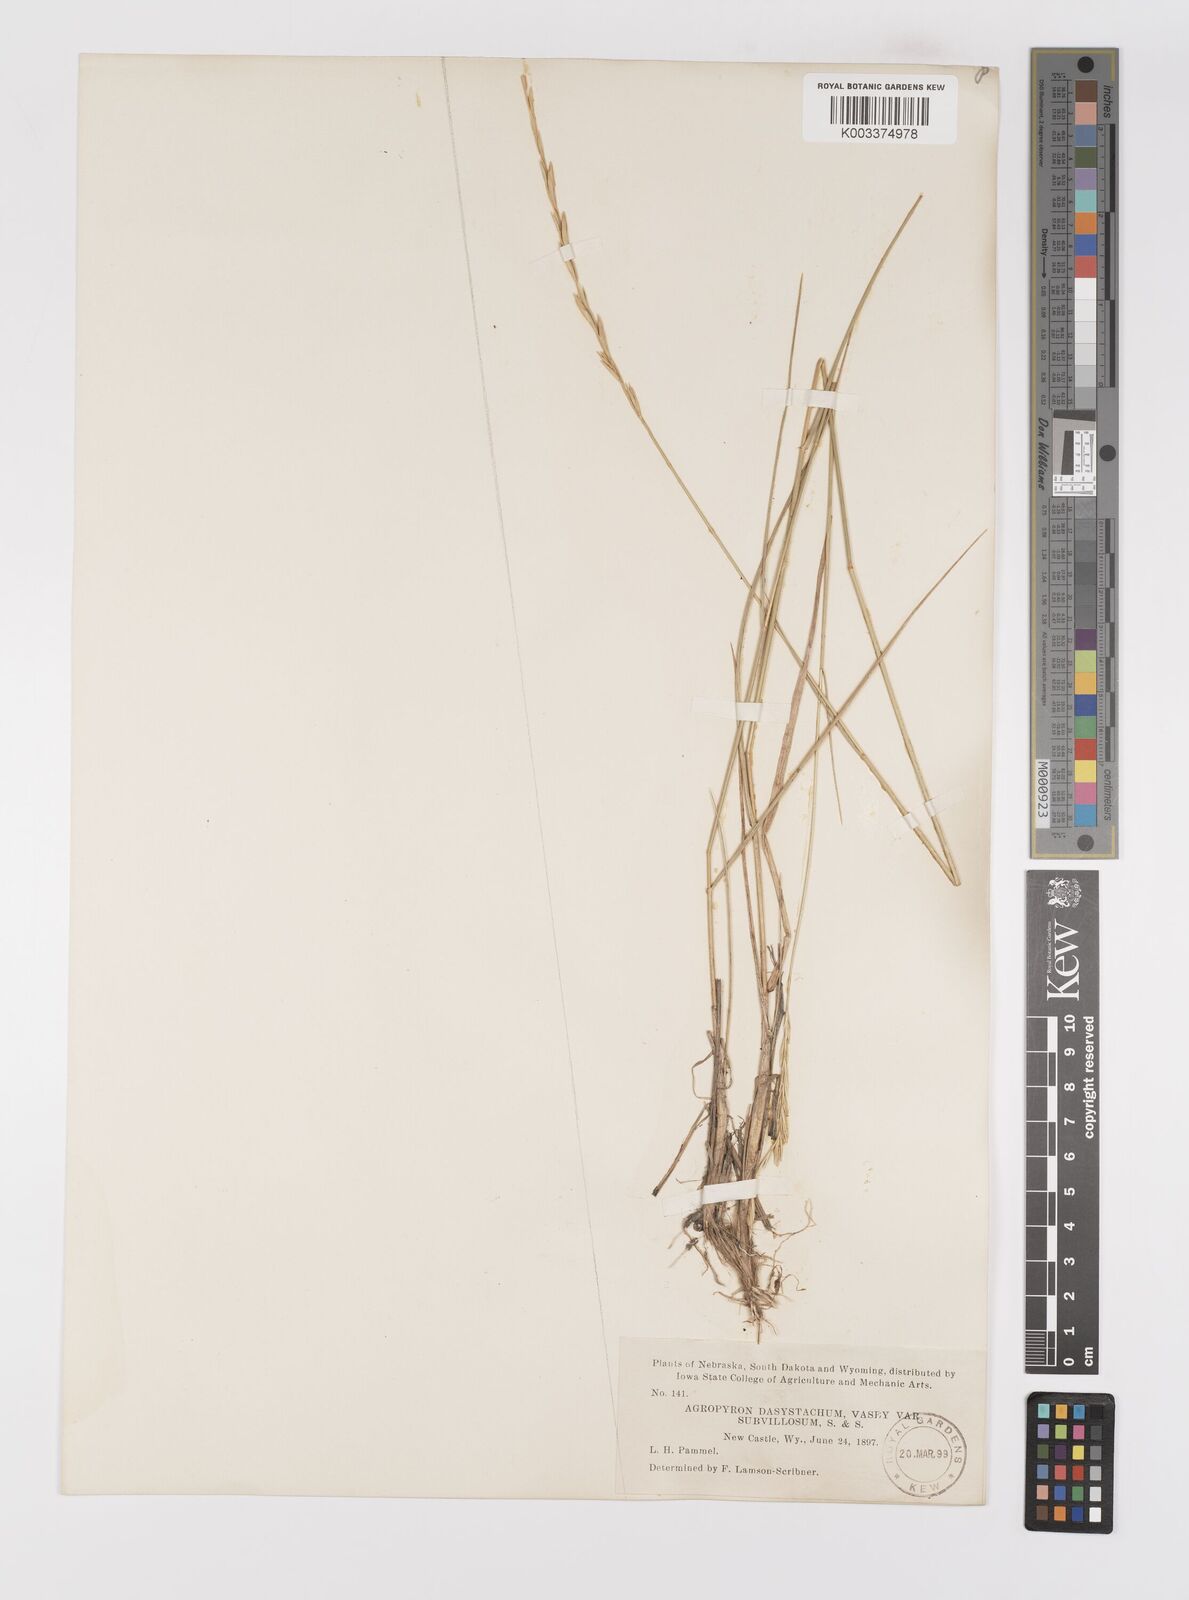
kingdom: Plantae
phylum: Tracheophyta
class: Liliopsida
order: Poales
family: Poaceae
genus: Elymus
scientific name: Elymus lanceolatus
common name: Thick-spike wheatgrass
